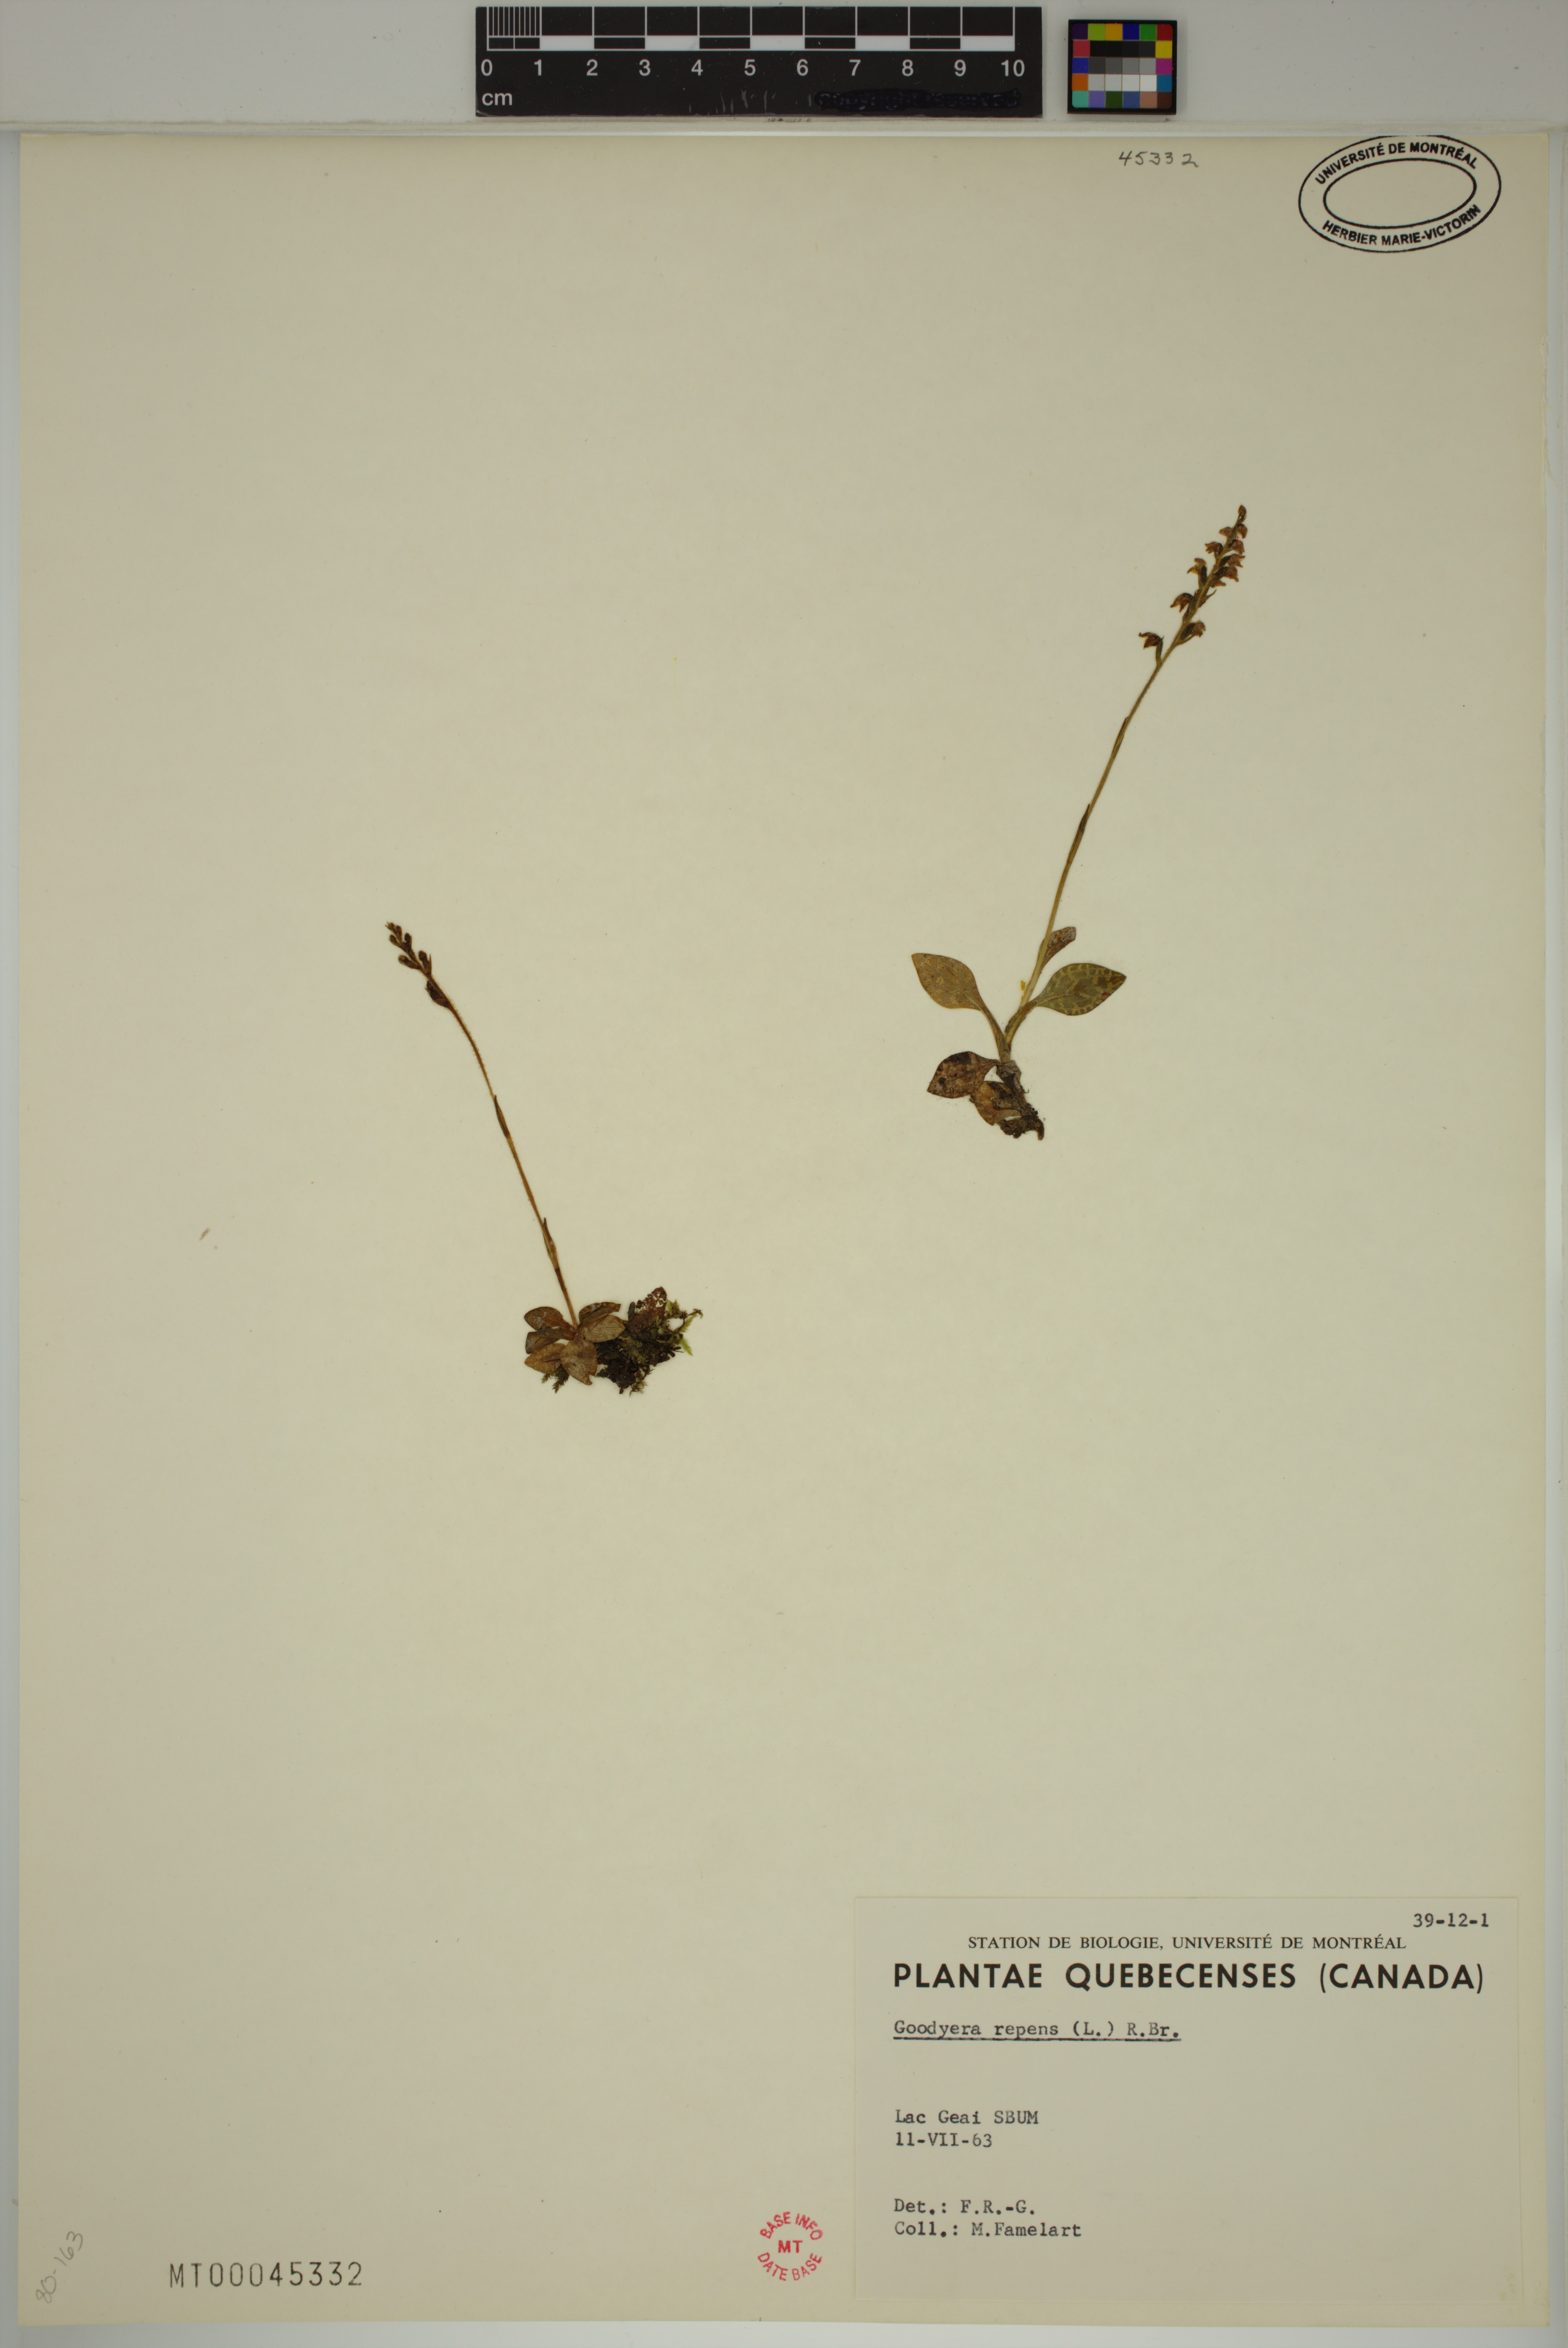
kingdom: Plantae
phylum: Tracheophyta
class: Liliopsida
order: Asparagales
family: Orchidaceae
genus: Goodyera
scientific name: Goodyera repens
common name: Creeping lady's-tresses
